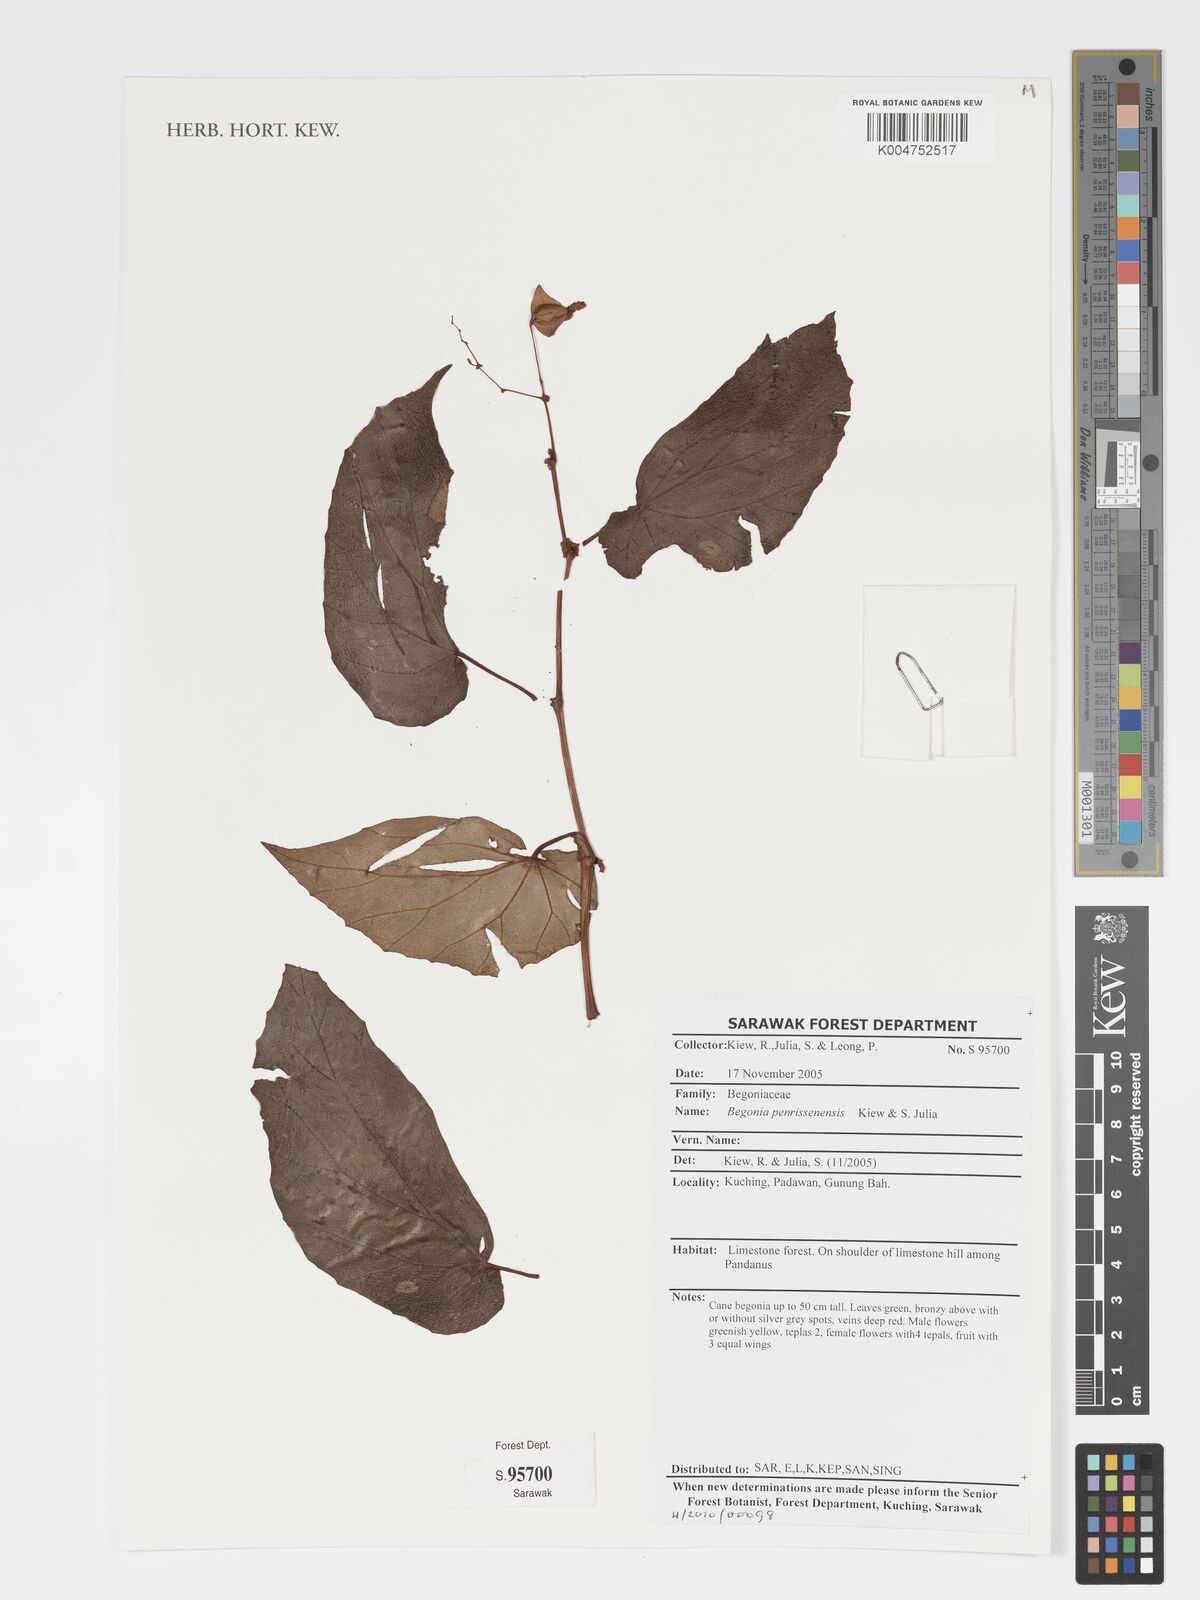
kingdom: Plantae
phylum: Tracheophyta
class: Magnoliopsida
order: Cucurbitales
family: Begoniaceae
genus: Begonia
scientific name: Begonia penrissenensis
